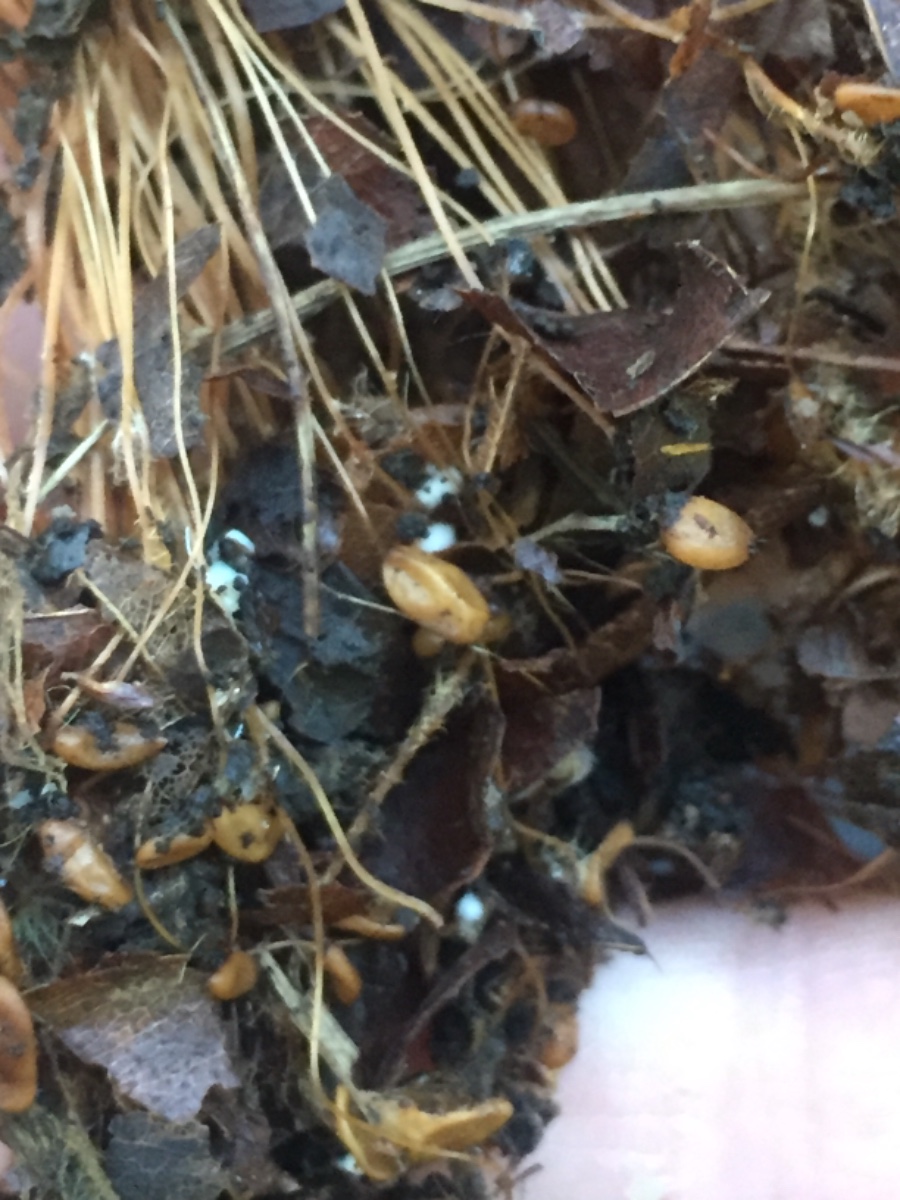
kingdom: Fungi
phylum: Basidiomycota
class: Agaricomycetes
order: Agaricales
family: Typhulaceae
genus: Macrotyphula
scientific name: Macrotyphula phacorrhiza
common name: lang rørkølle
